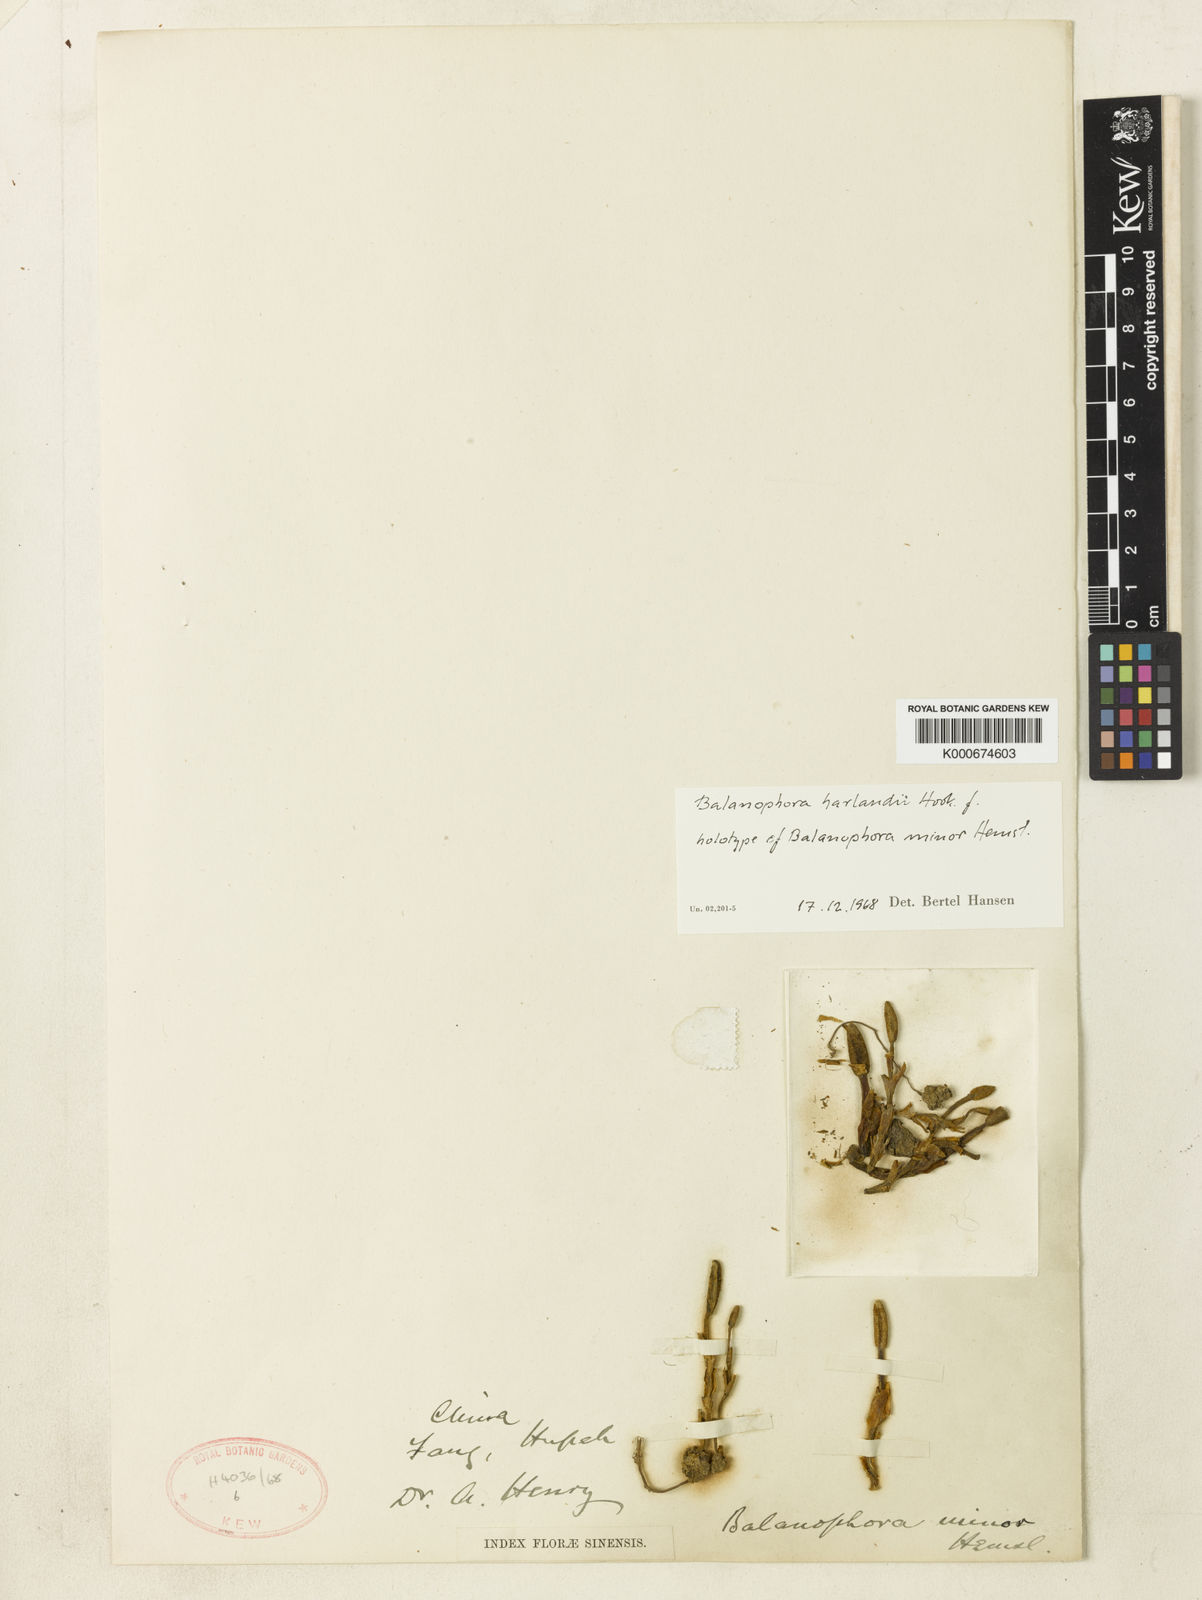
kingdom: Plantae
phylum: Tracheophyta
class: Magnoliopsida
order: Santalales
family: Balanophoraceae
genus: Balanophora
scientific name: Balanophora harlandii
